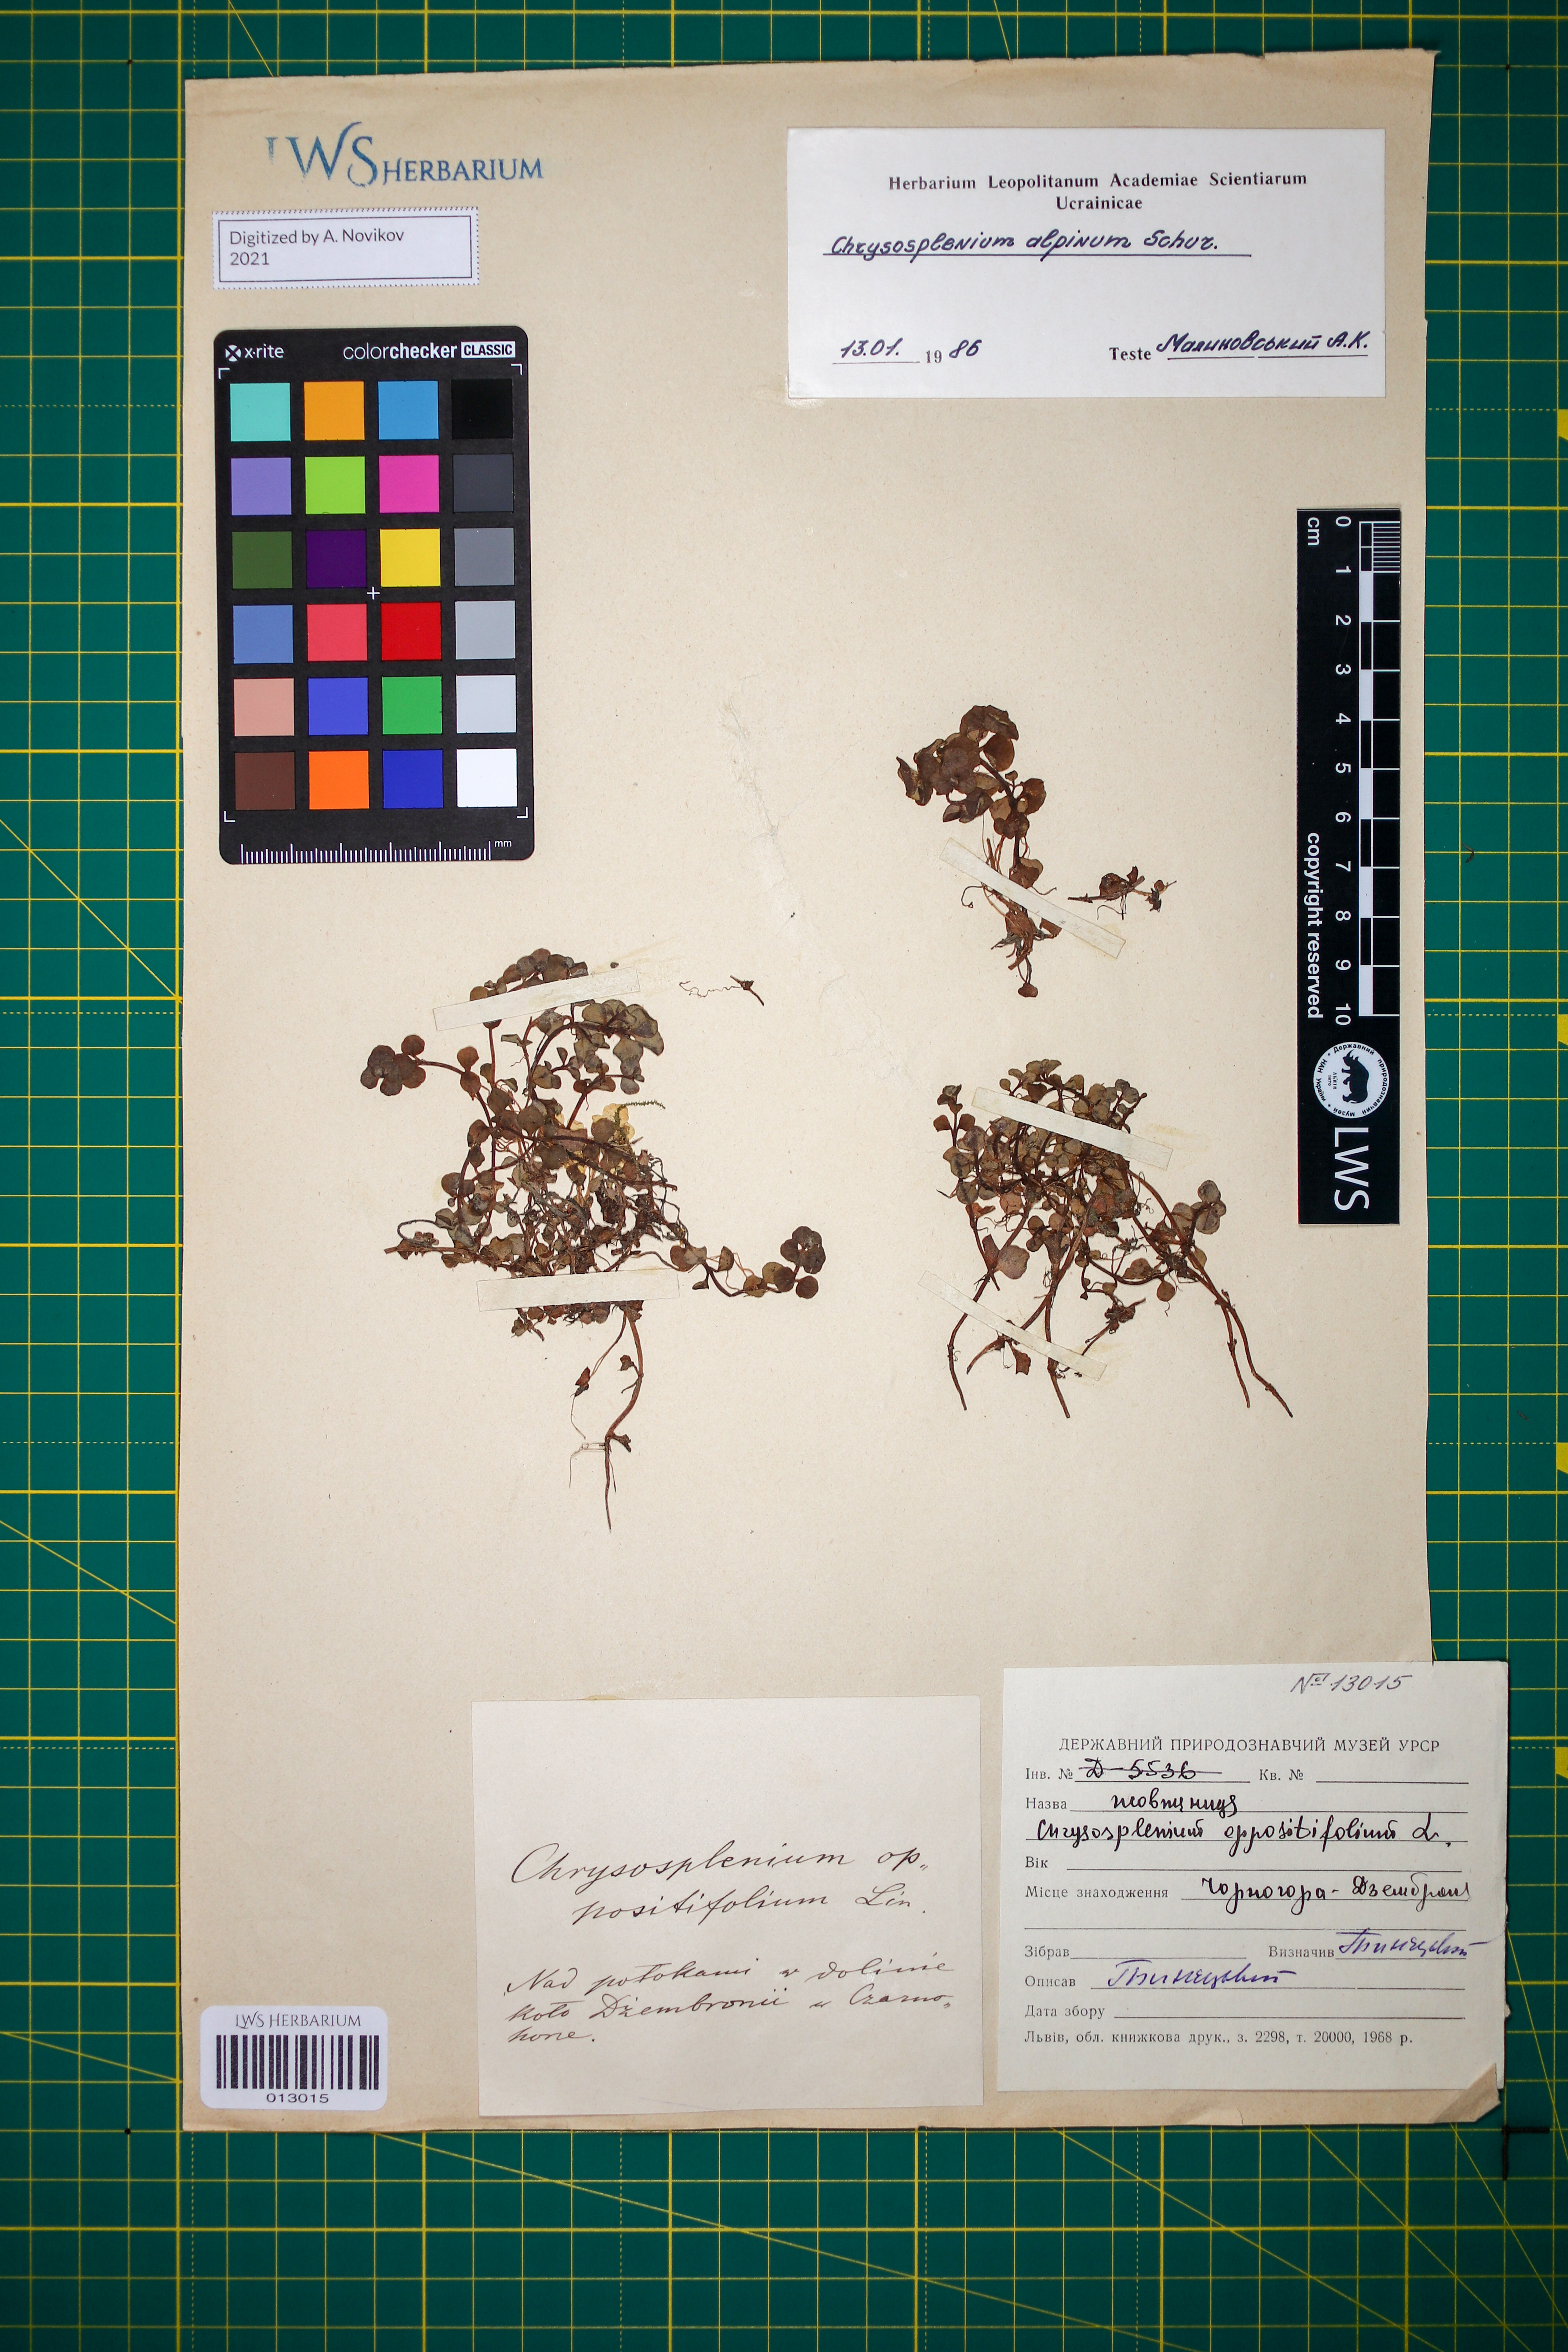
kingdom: Plantae
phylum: Tracheophyta
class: Magnoliopsida
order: Saxifragales
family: Saxifragaceae
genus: Chrysosplenium
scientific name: Chrysosplenium alpinum
